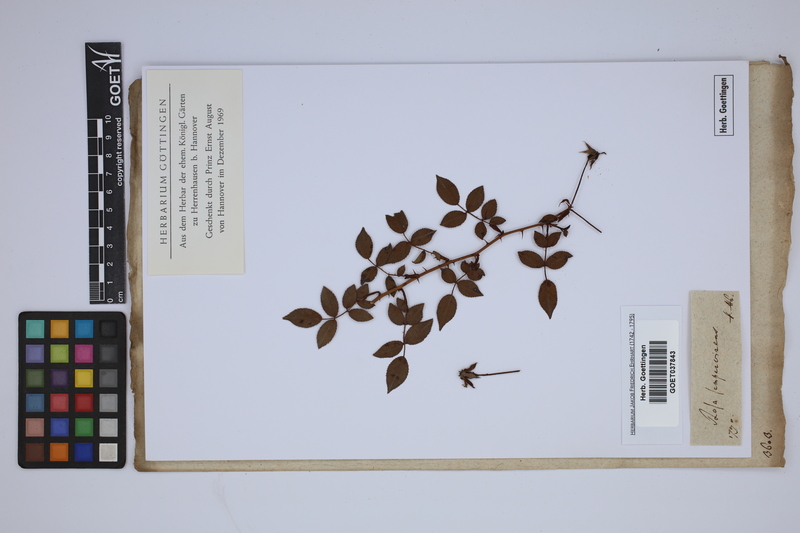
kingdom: Plantae
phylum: Tracheophyta
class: Magnoliopsida
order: Rosales
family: Rosaceae
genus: Rosa
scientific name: Rosa sempervirens
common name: Evergreen rose
